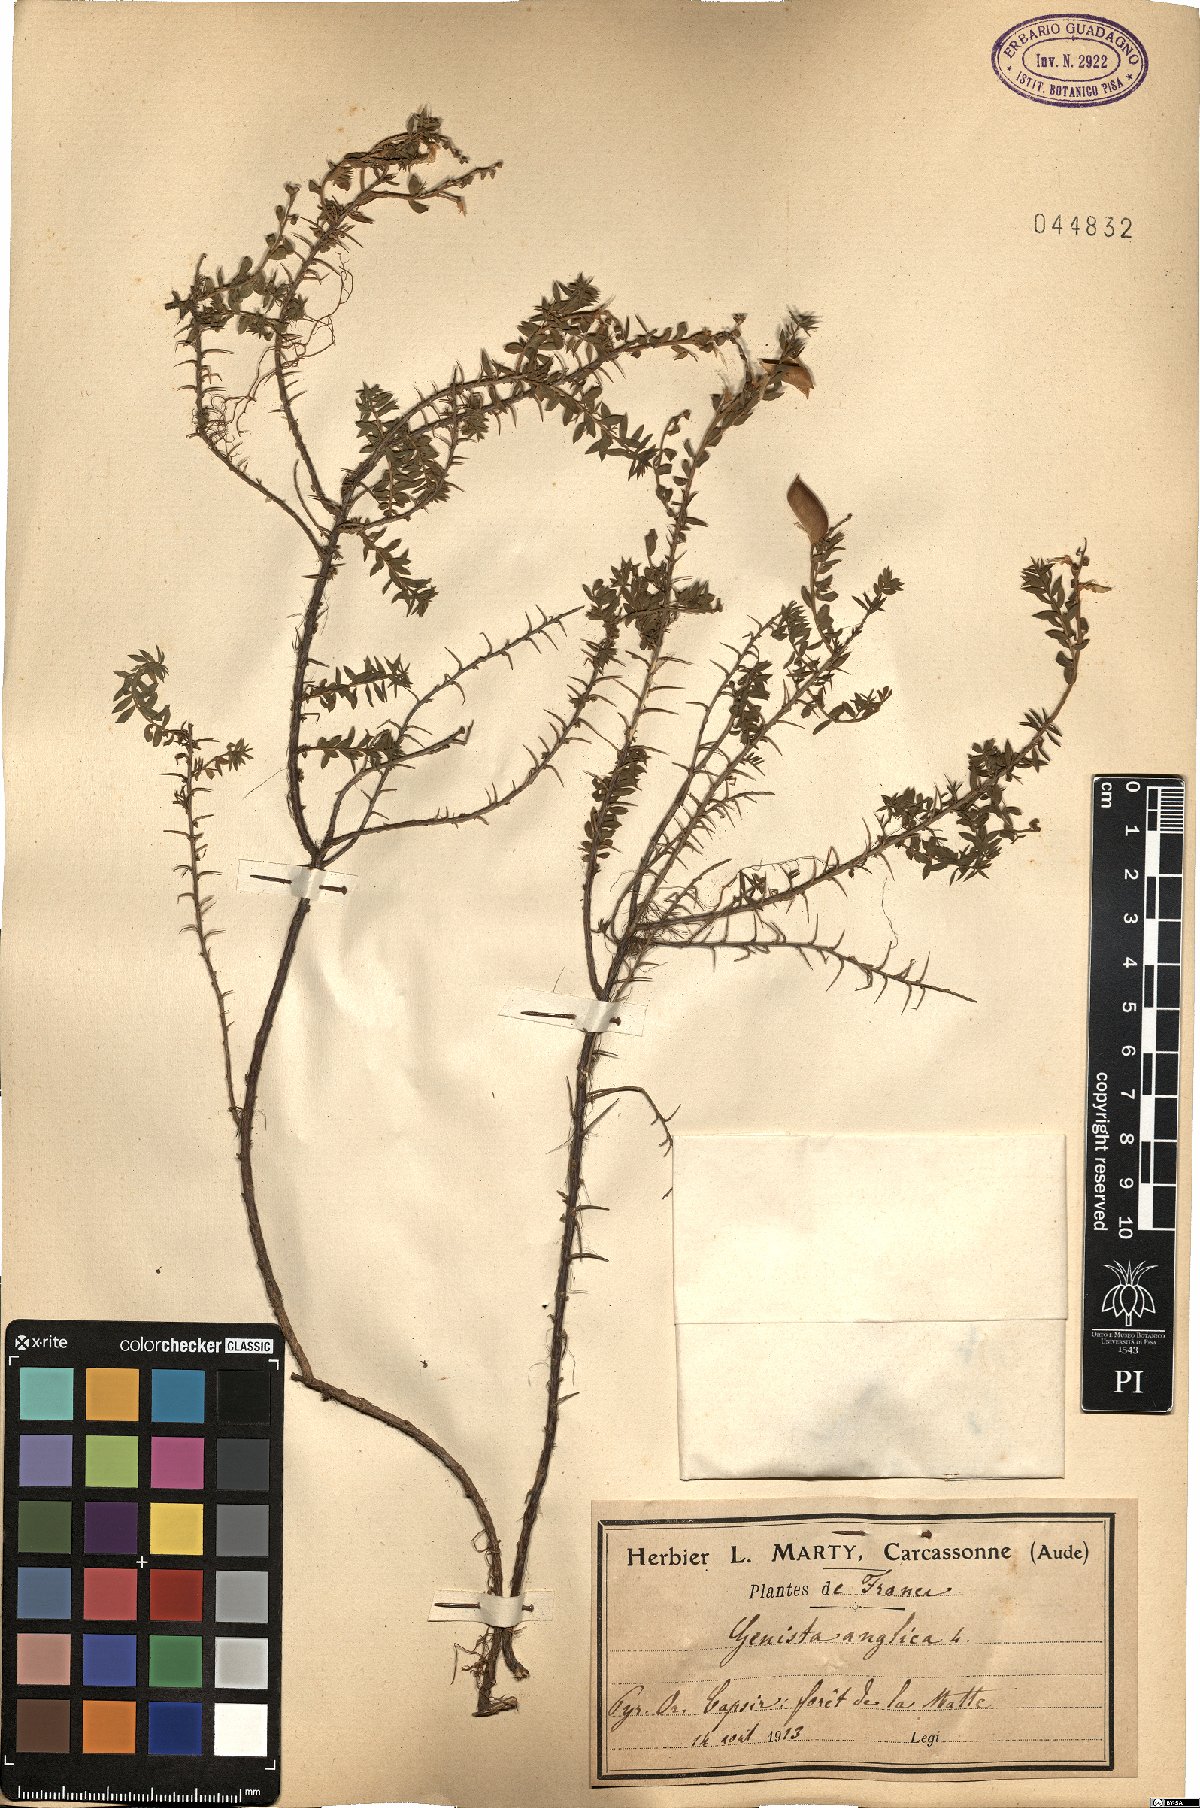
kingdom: Plantae
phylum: Tracheophyta
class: Magnoliopsida
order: Fabales
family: Fabaceae
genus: Genista
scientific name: Genista anglica
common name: Petty whin
